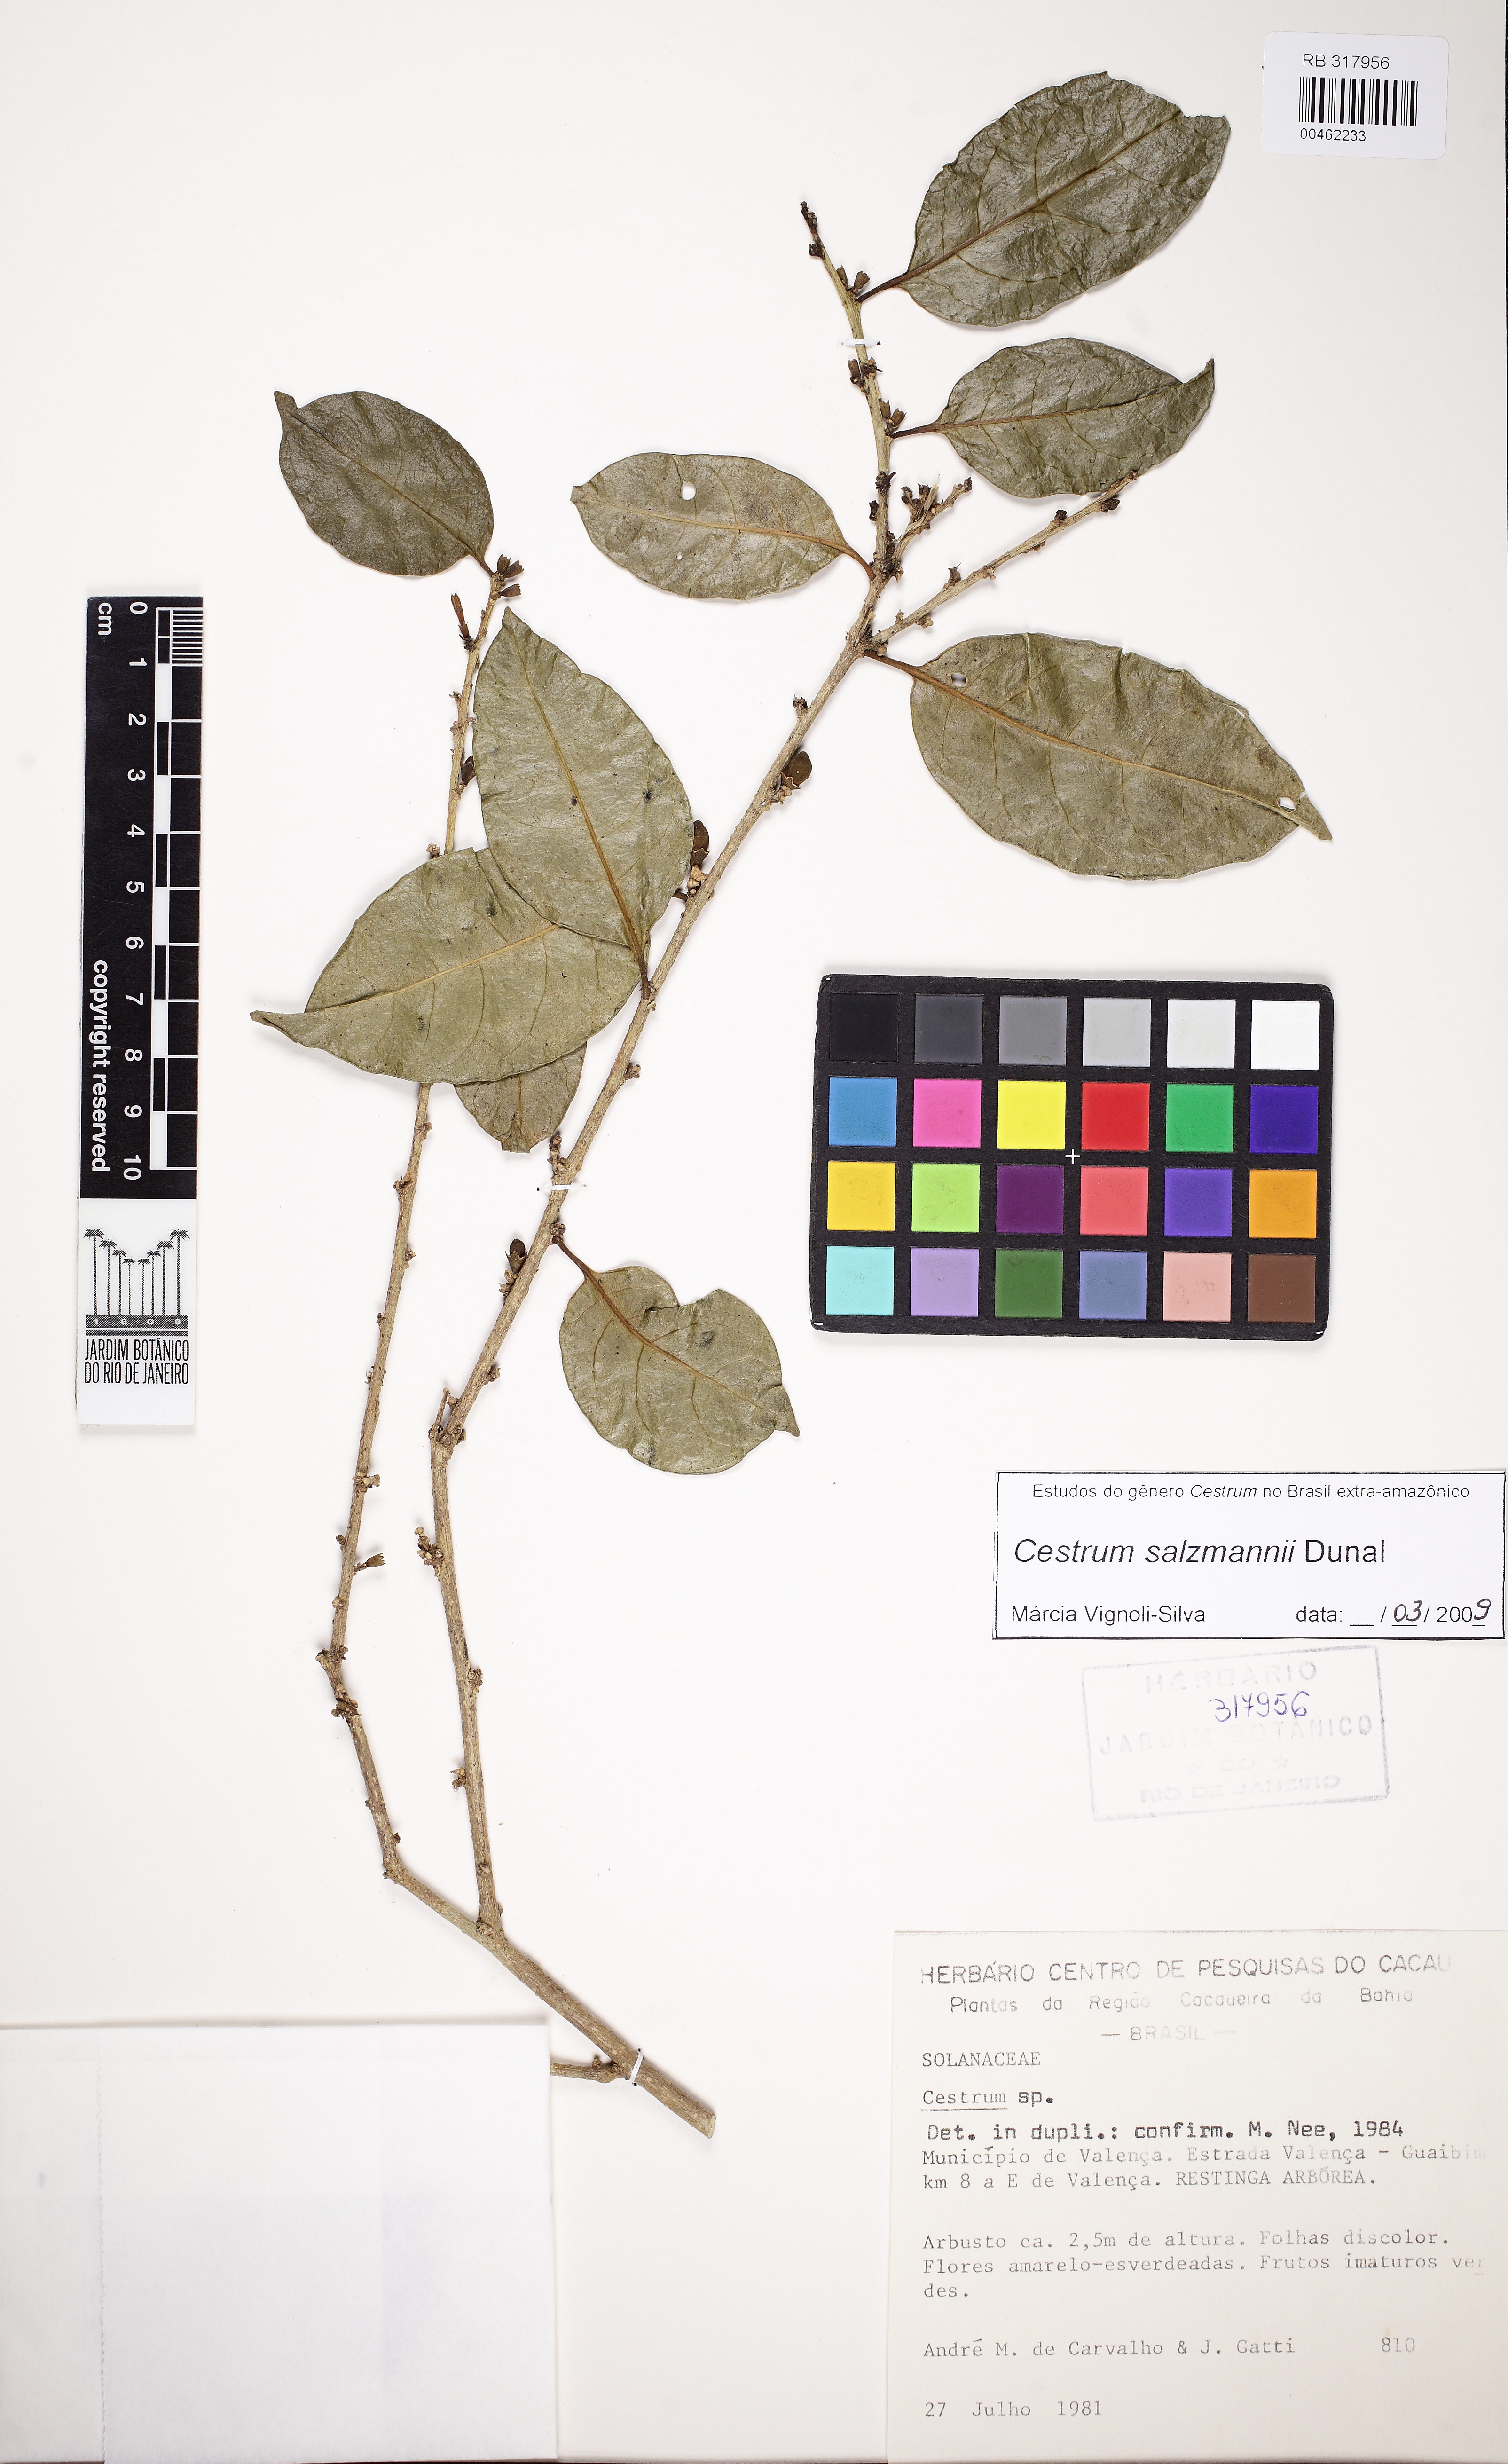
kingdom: Plantae
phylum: Tracheophyta
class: Magnoliopsida
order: Solanales
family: Solanaceae
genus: Cestrum
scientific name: Cestrum salzmannii
